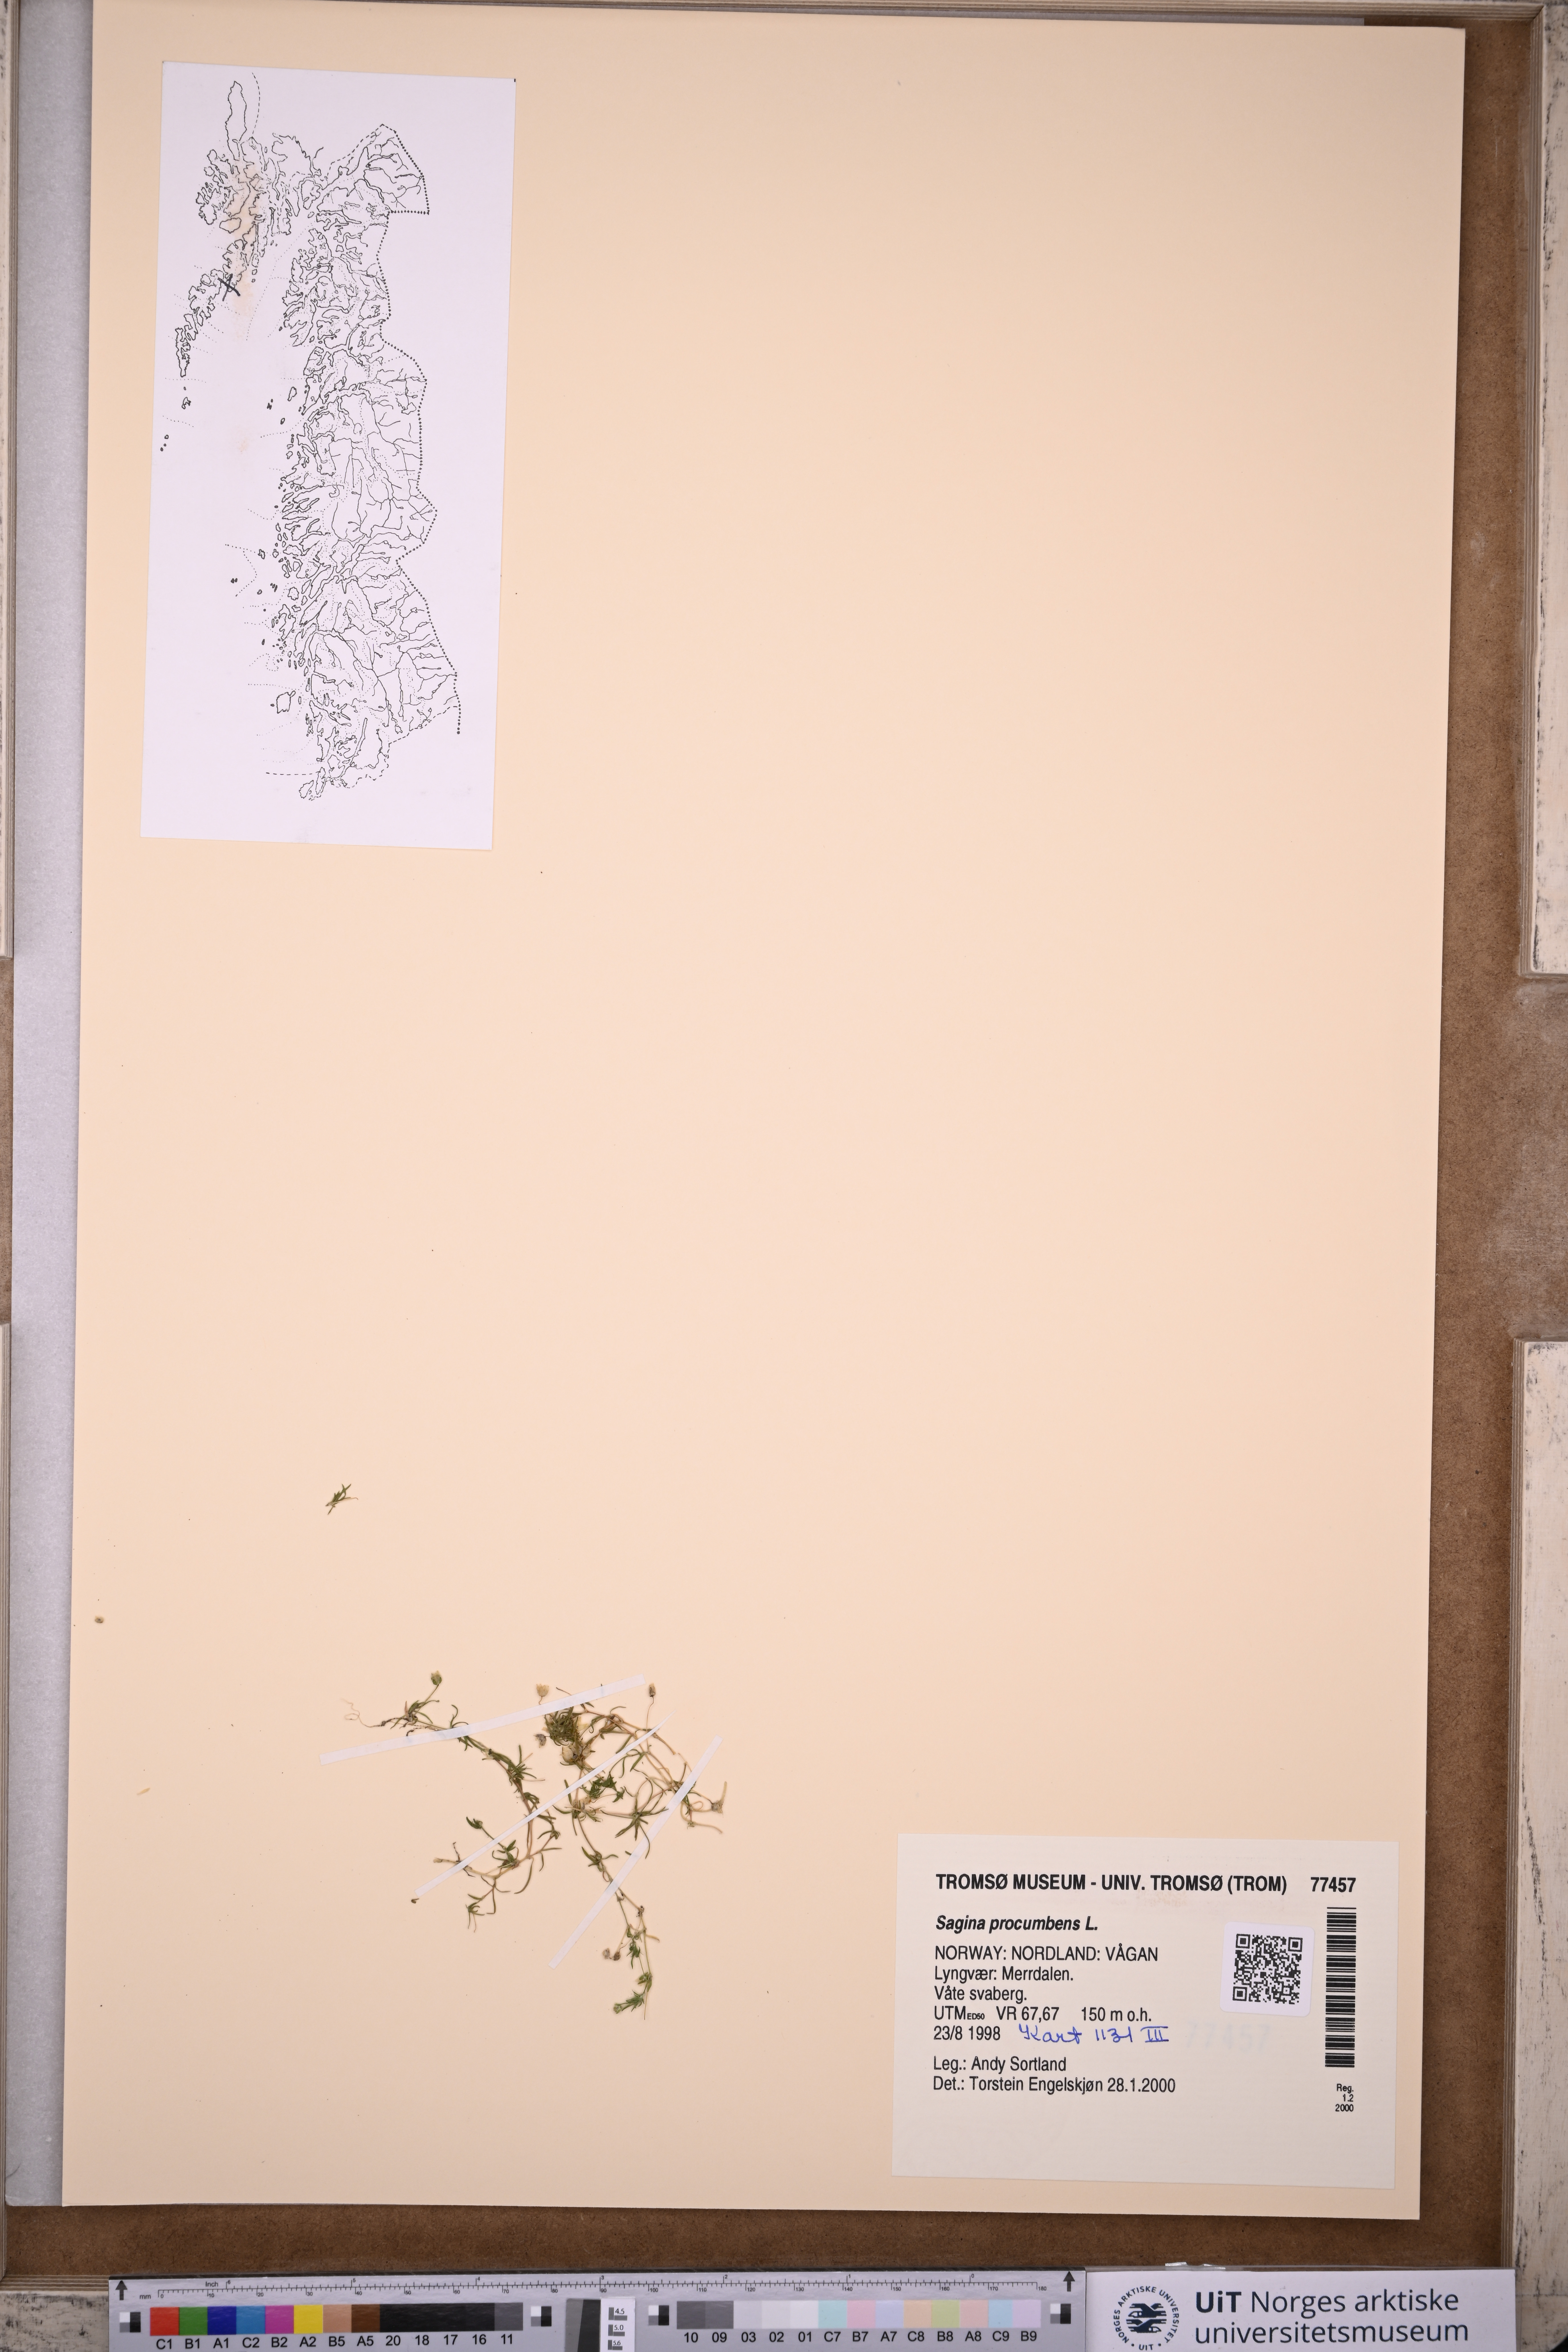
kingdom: Plantae
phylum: Tracheophyta
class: Magnoliopsida
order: Caryophyllales
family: Caryophyllaceae
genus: Sagina
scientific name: Sagina procumbens
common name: Procumbent pearlwort
